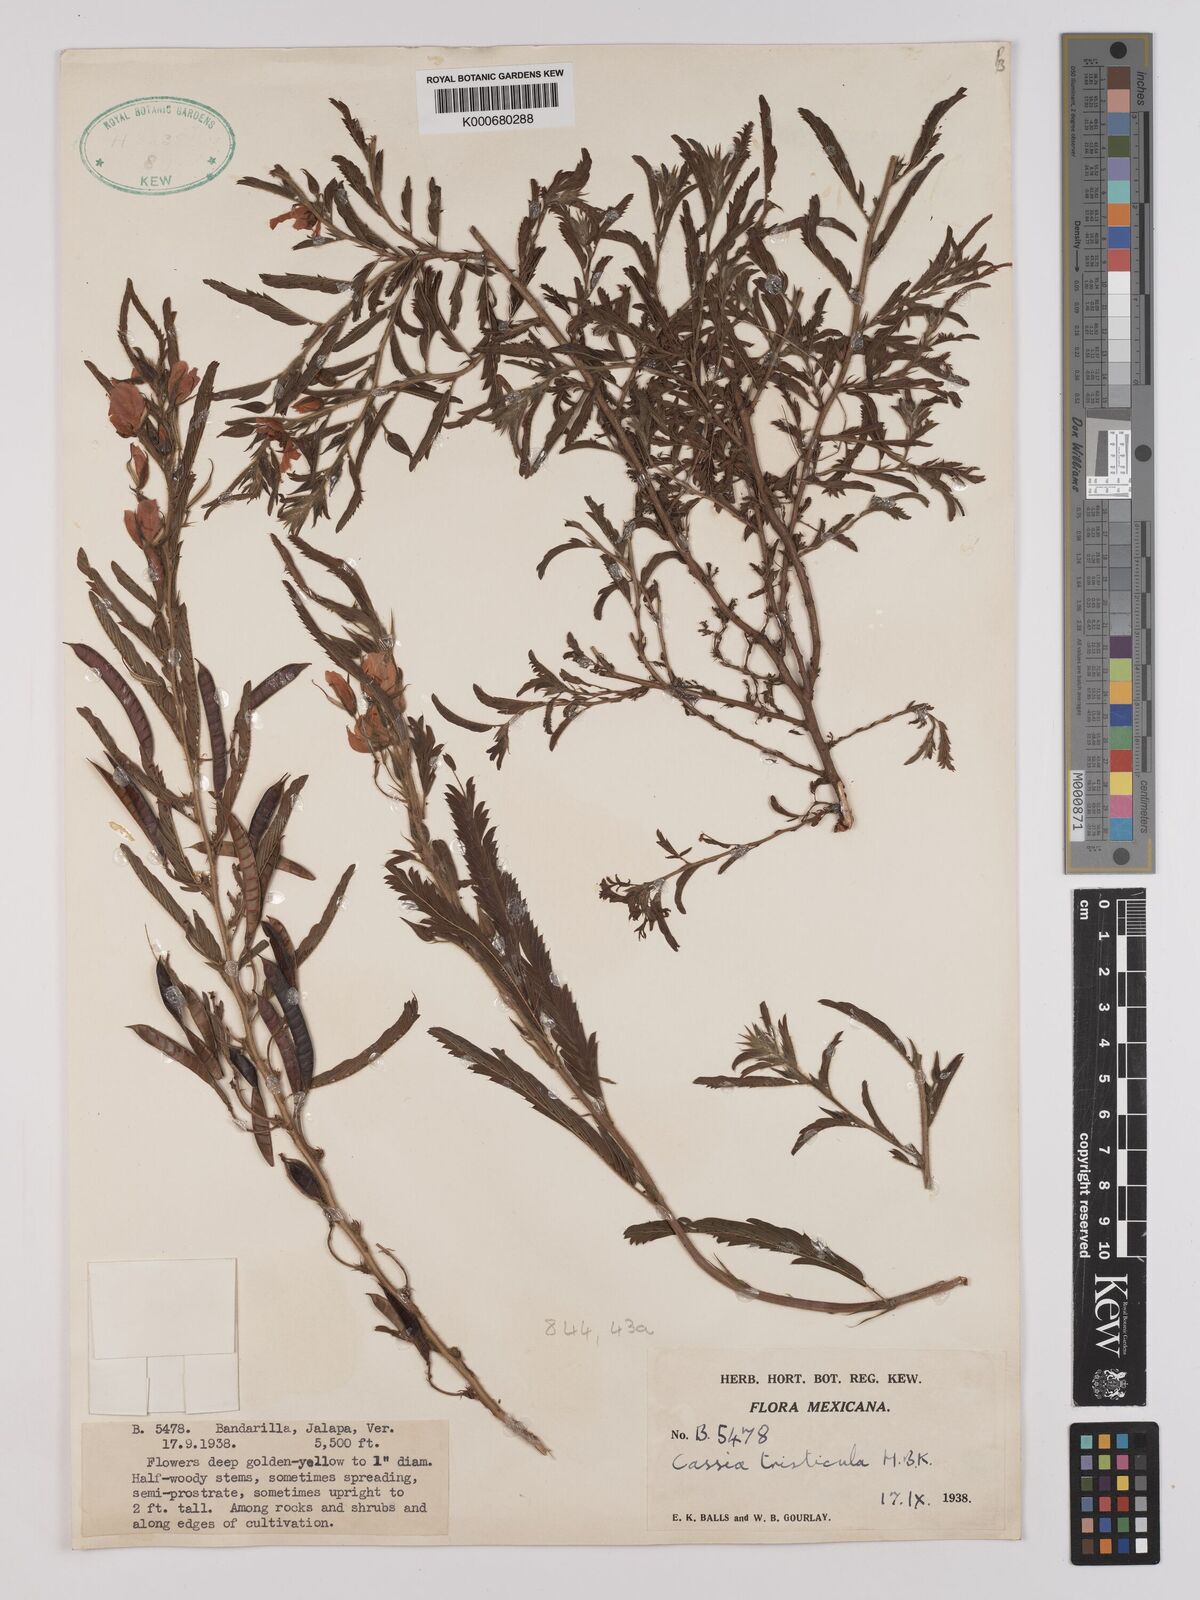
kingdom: Plantae
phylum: Tracheophyta
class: Magnoliopsida
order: Fabales
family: Fabaceae
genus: Chamaecrista
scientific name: Chamaecrista glandulosa
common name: Wild peas
